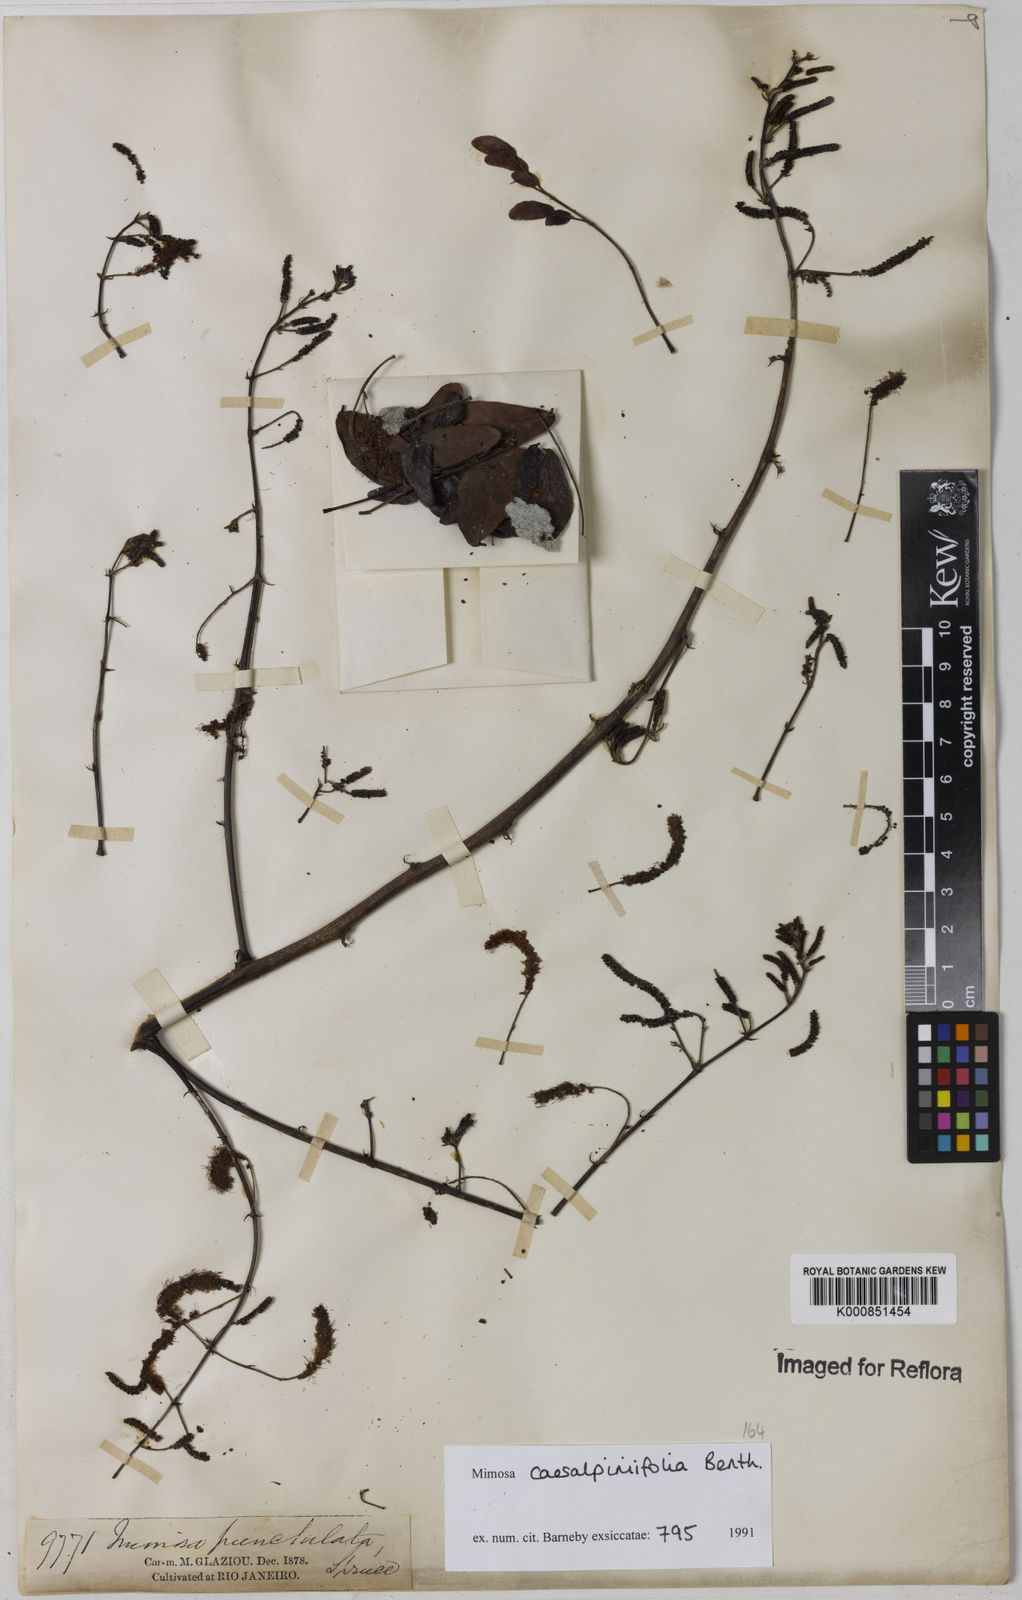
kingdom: Plantae
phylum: Tracheophyta
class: Magnoliopsida
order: Fabales
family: Fabaceae
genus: Mimosa
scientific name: Mimosa caesalpiniifolia
